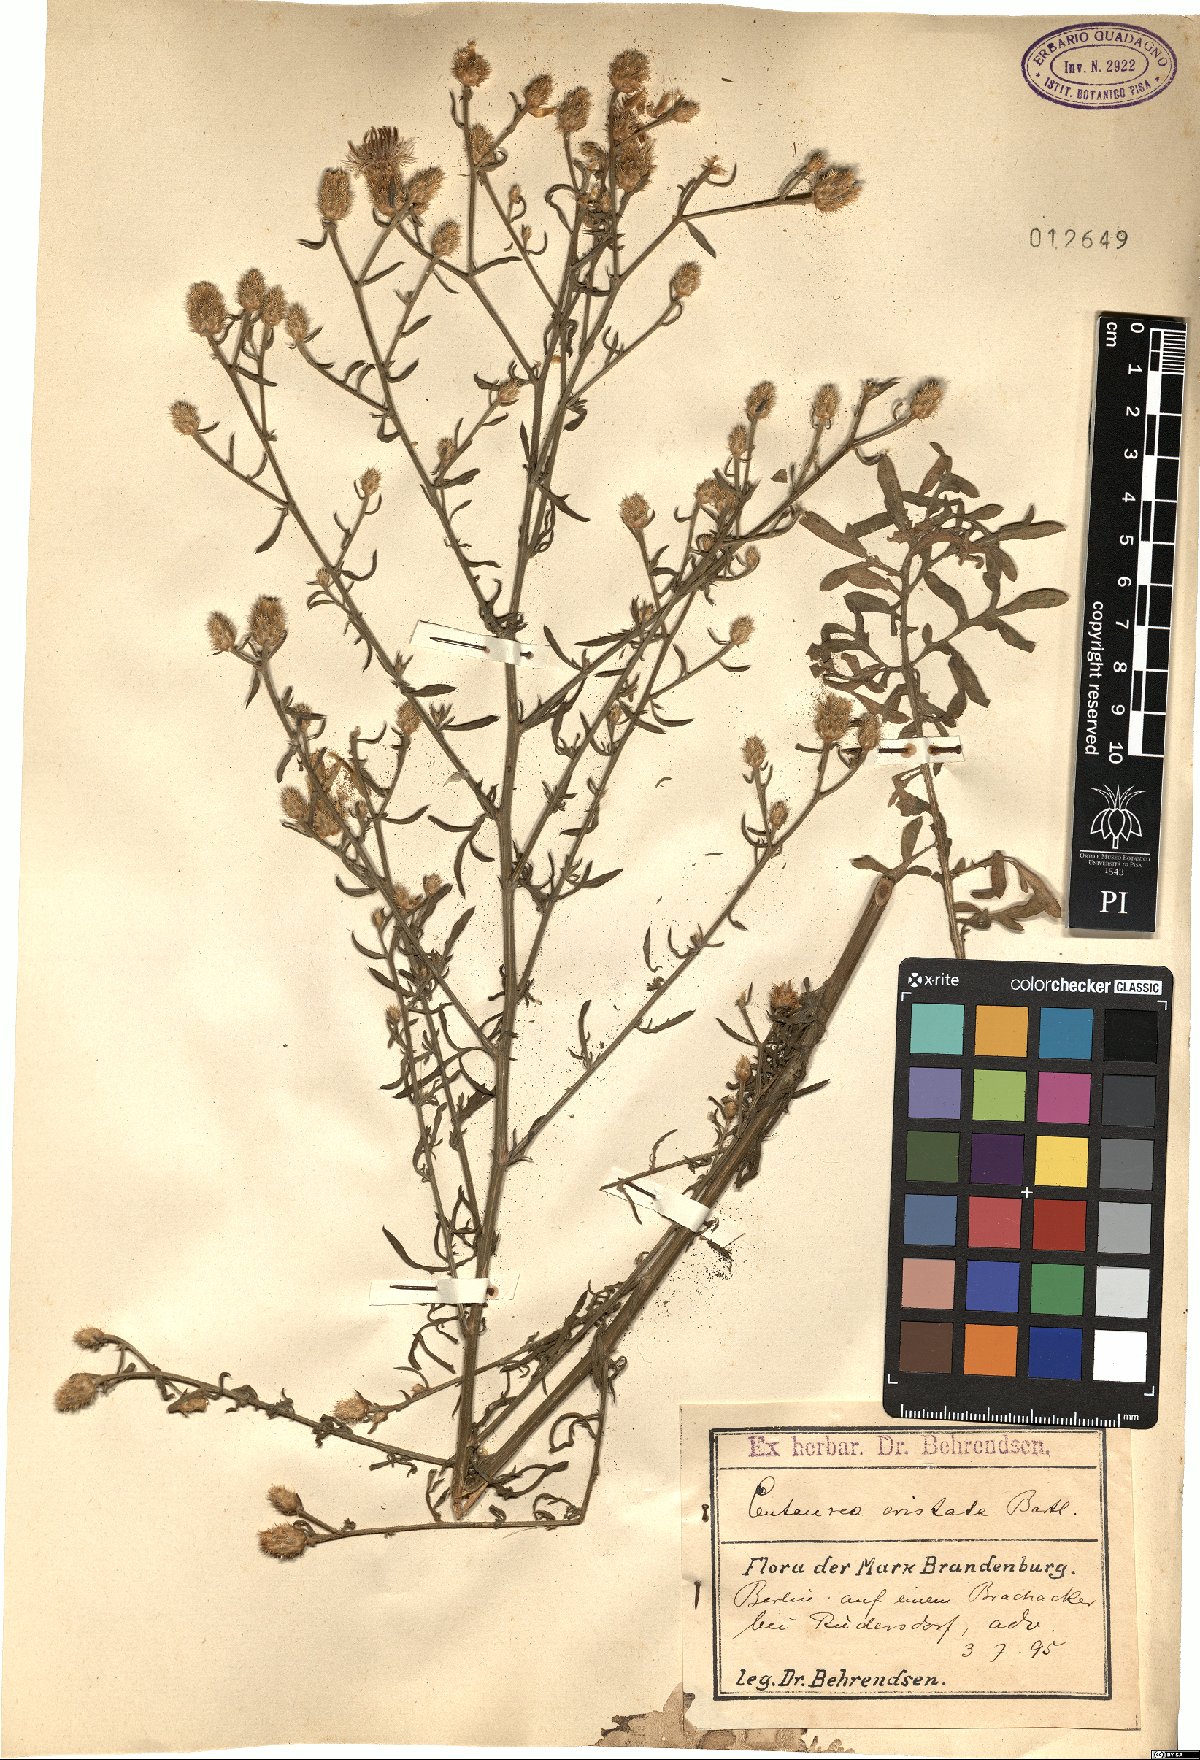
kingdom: Plantae
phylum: Tracheophyta
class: Magnoliopsida
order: Asterales
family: Asteraceae
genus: Centaurea
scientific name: Centaurea cristata
